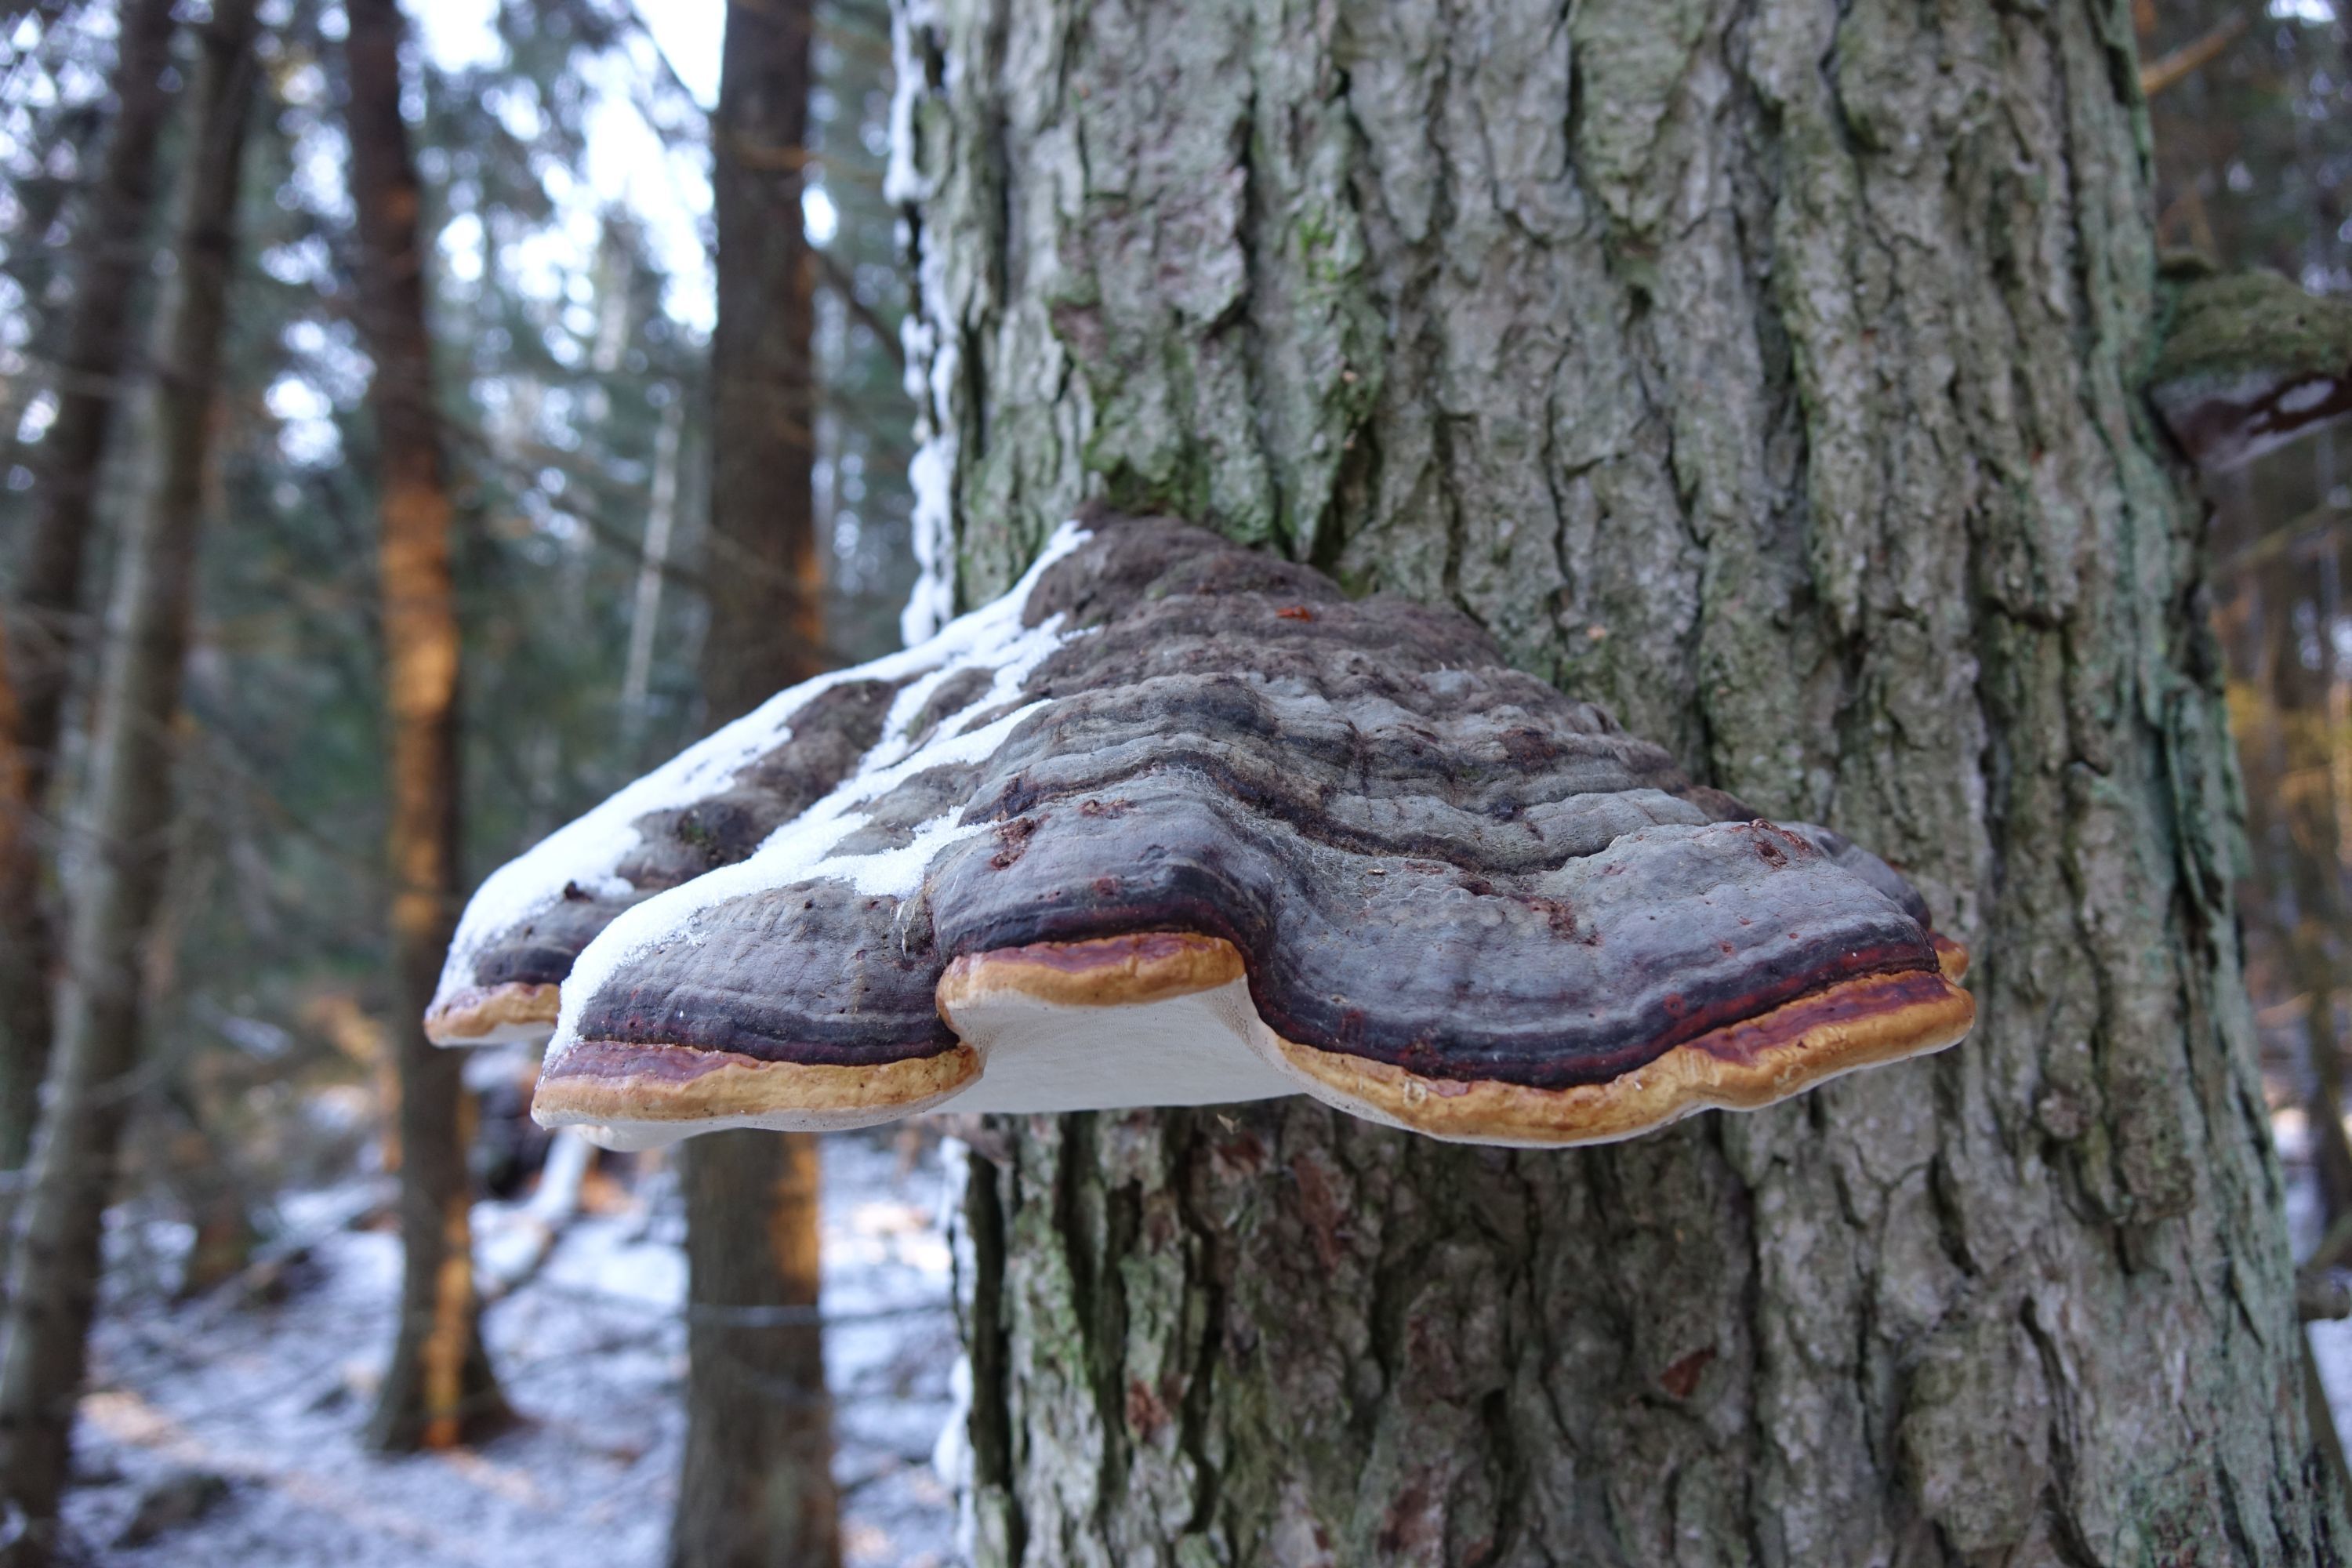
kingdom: Fungi
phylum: Basidiomycota
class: Agaricomycetes
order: Polyporales
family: Fomitopsidaceae
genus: Fomitopsis
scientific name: Fomitopsis pinicola
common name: Red-belted bracket
